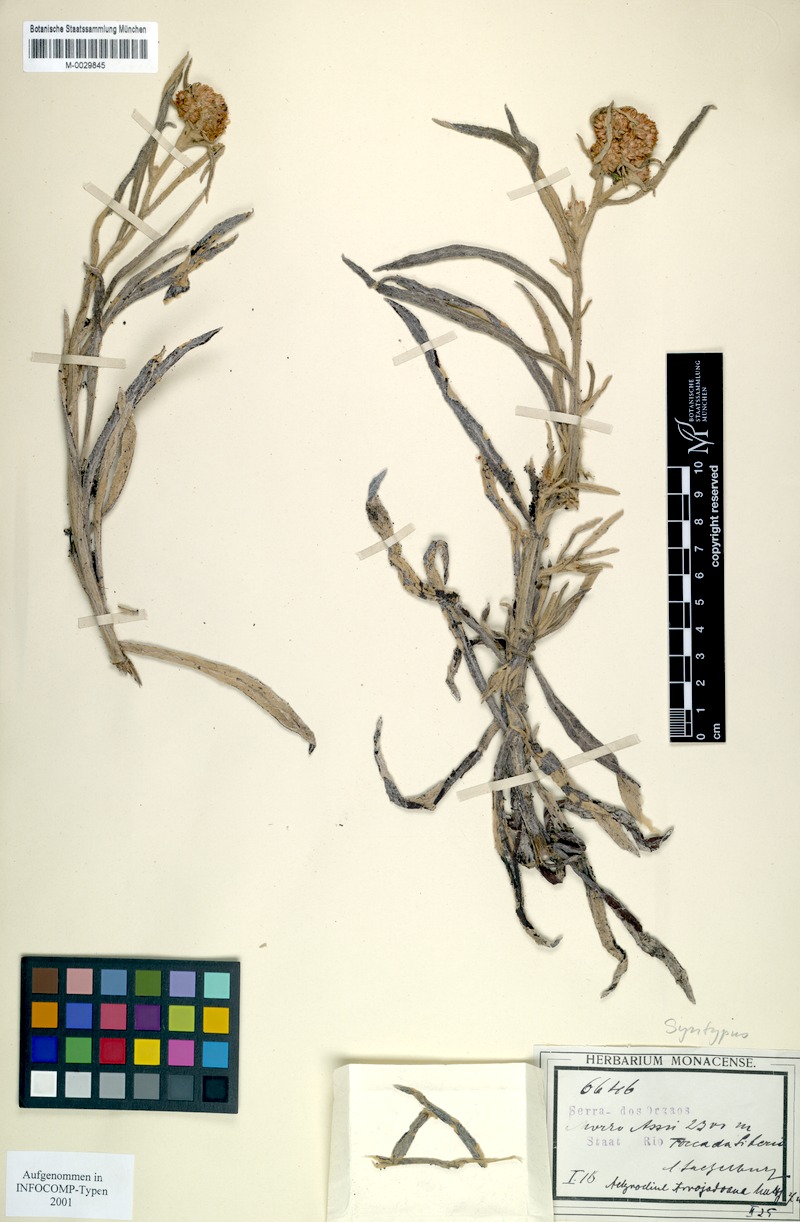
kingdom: Plantae
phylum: Tracheophyta
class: Magnoliopsida
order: Asterales
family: Asteraceae
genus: Achyrocline
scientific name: Achyrocline arrojadoana
